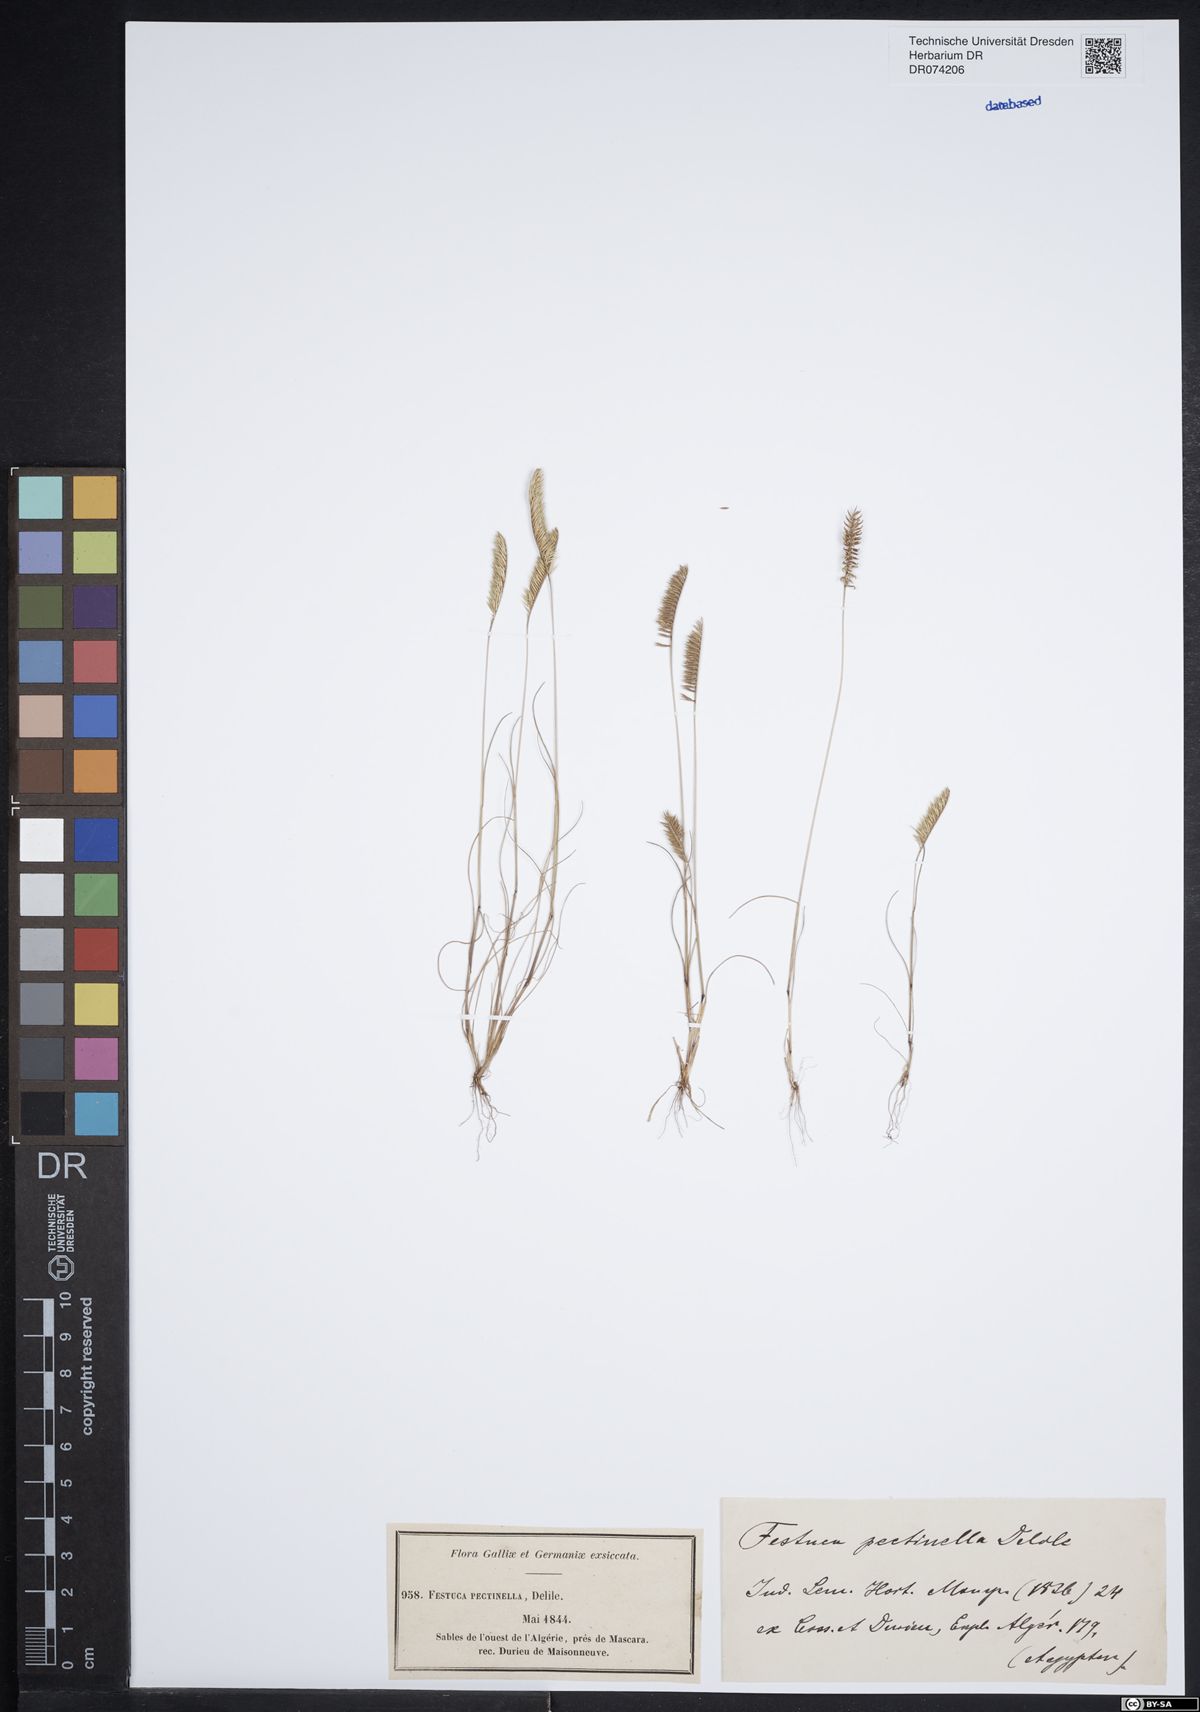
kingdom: Plantae
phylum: Tracheophyta
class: Liliopsida
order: Poales
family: Poaceae
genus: Festuca
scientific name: Festuca pectinella
